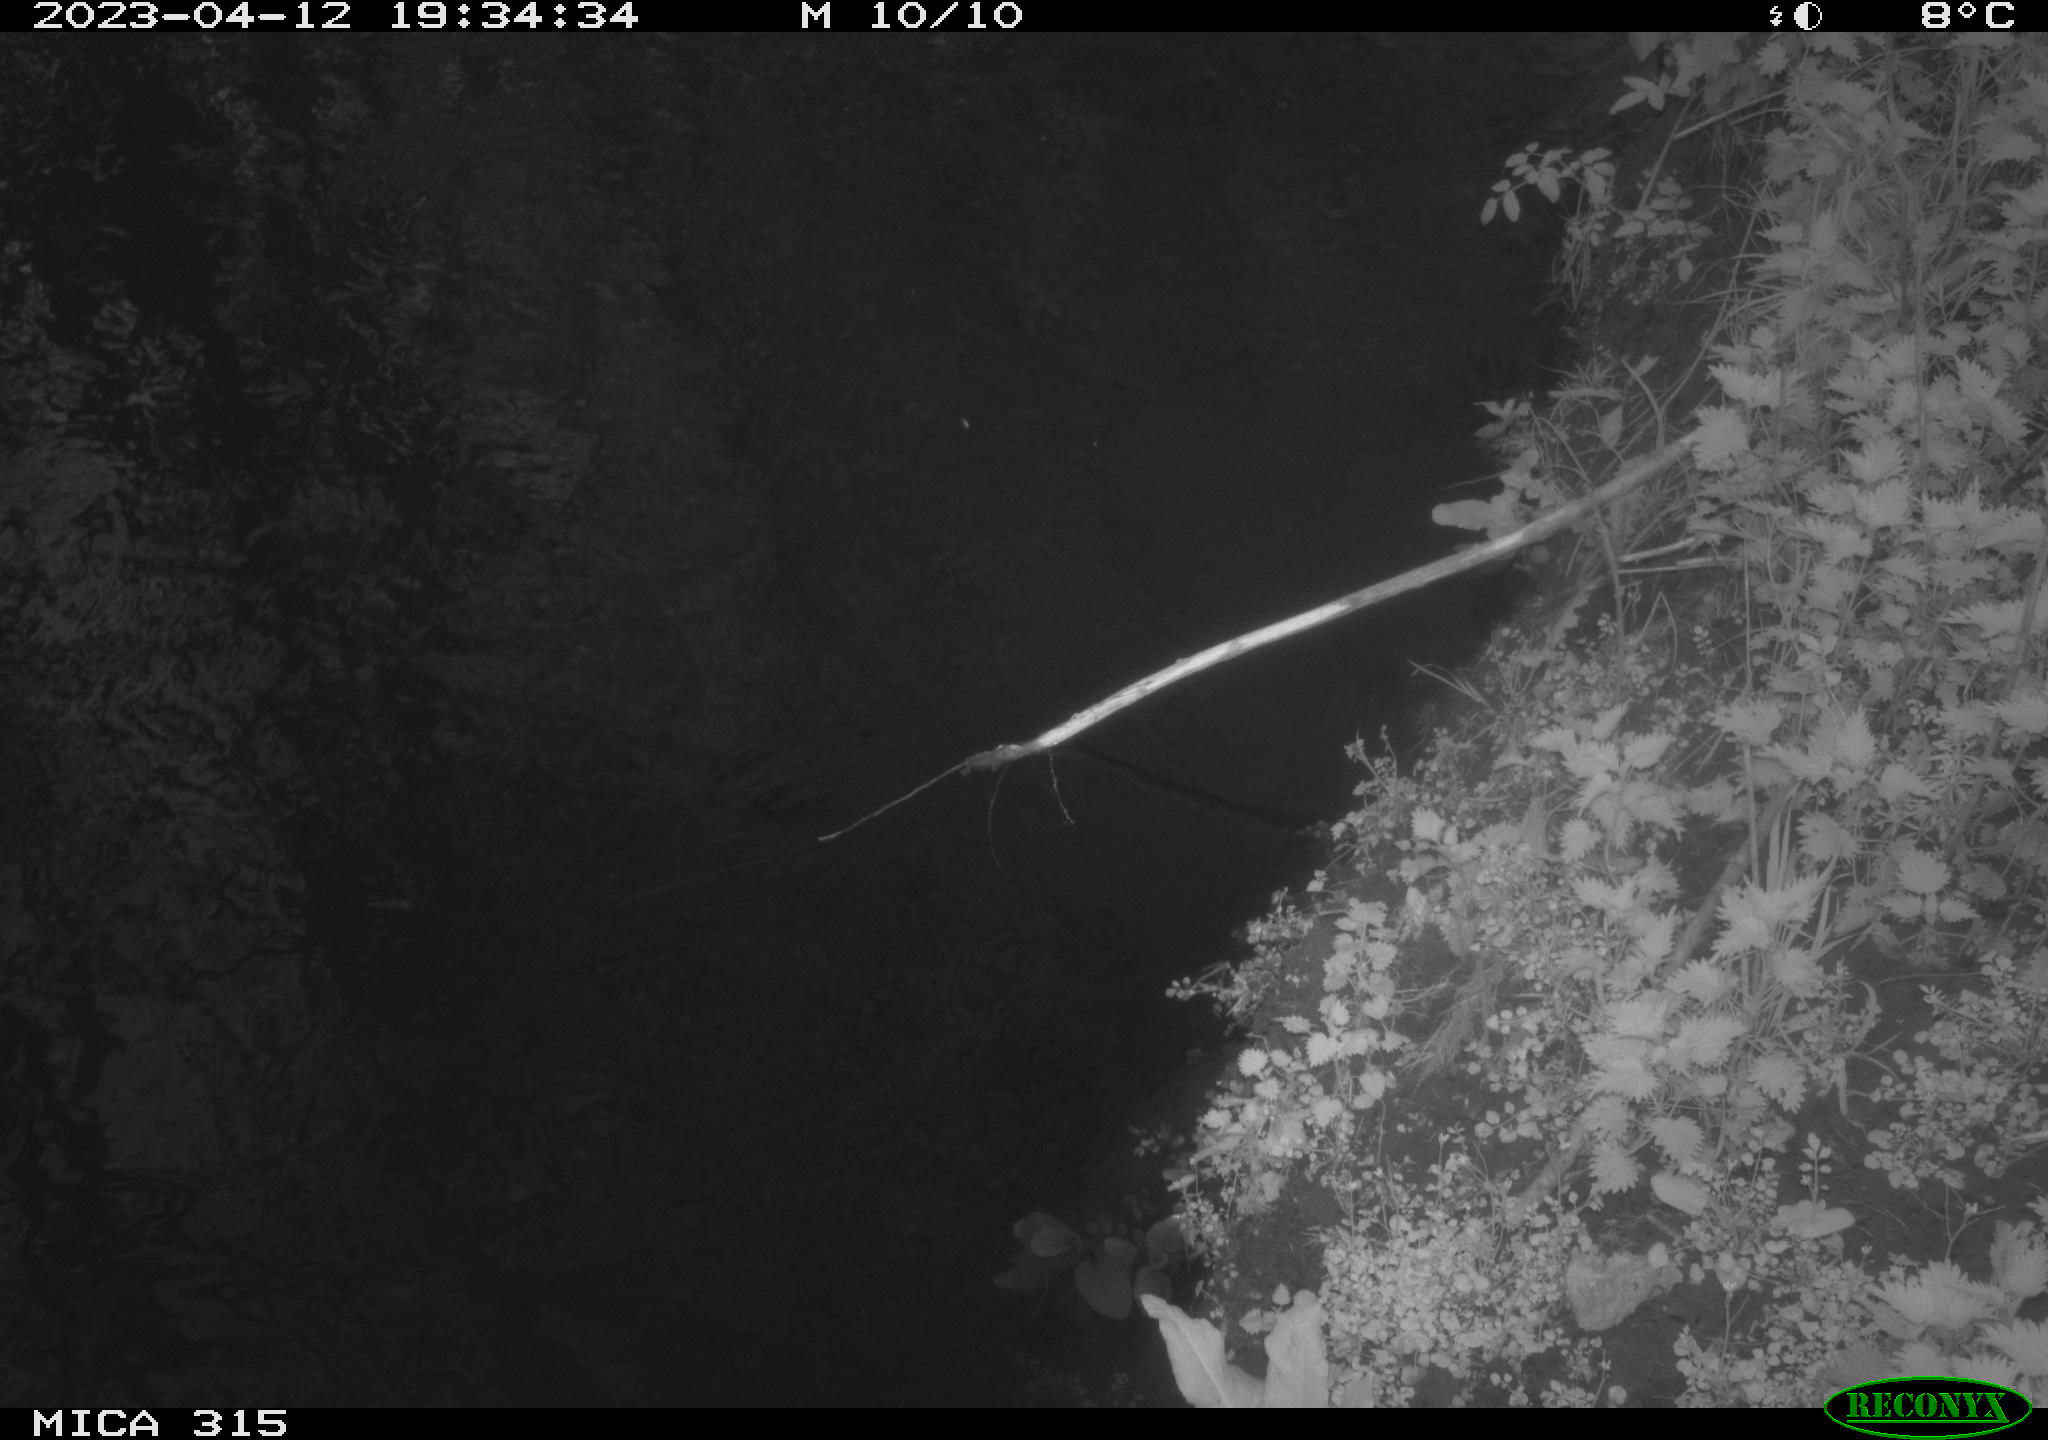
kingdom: Animalia
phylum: Chordata
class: Aves
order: Gruiformes
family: Rallidae
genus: Gallinula
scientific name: Gallinula chloropus
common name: Common moorhen
